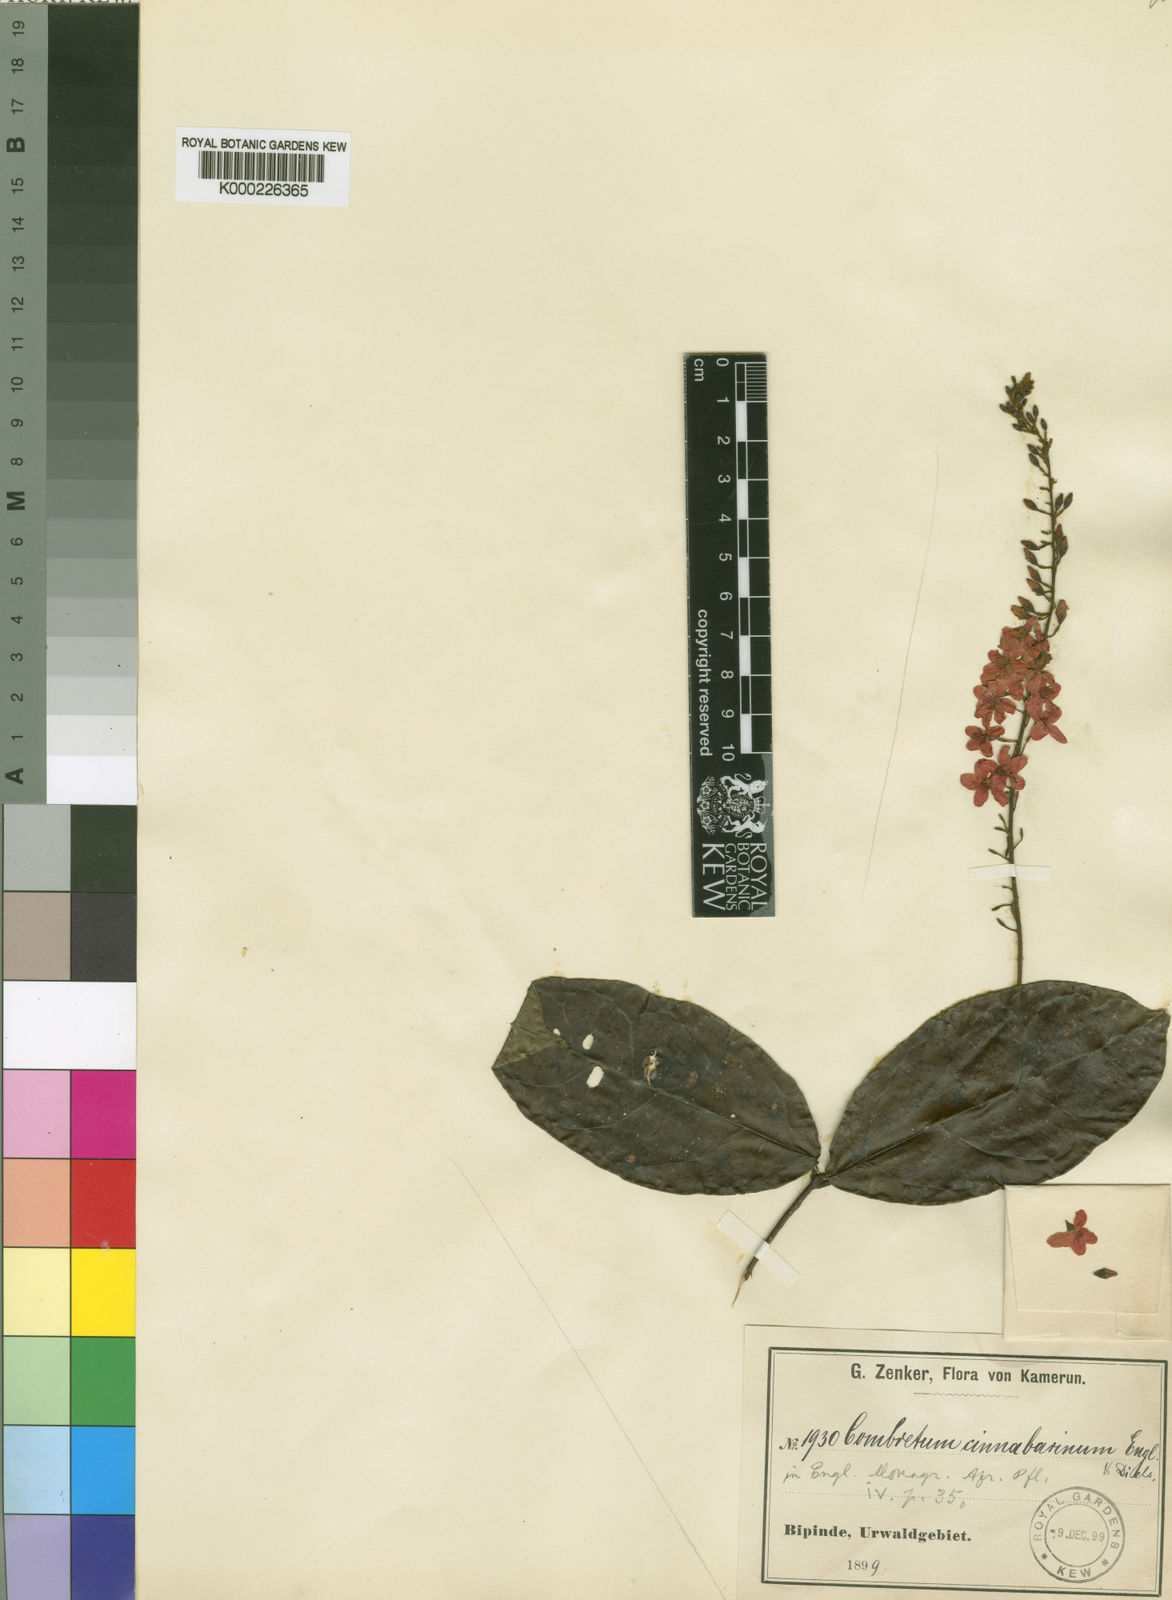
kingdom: Plantae
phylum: Tracheophyta
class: Magnoliopsida
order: Myrtales
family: Combretaceae
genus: Combretum
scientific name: Combretum cinnabarinum
